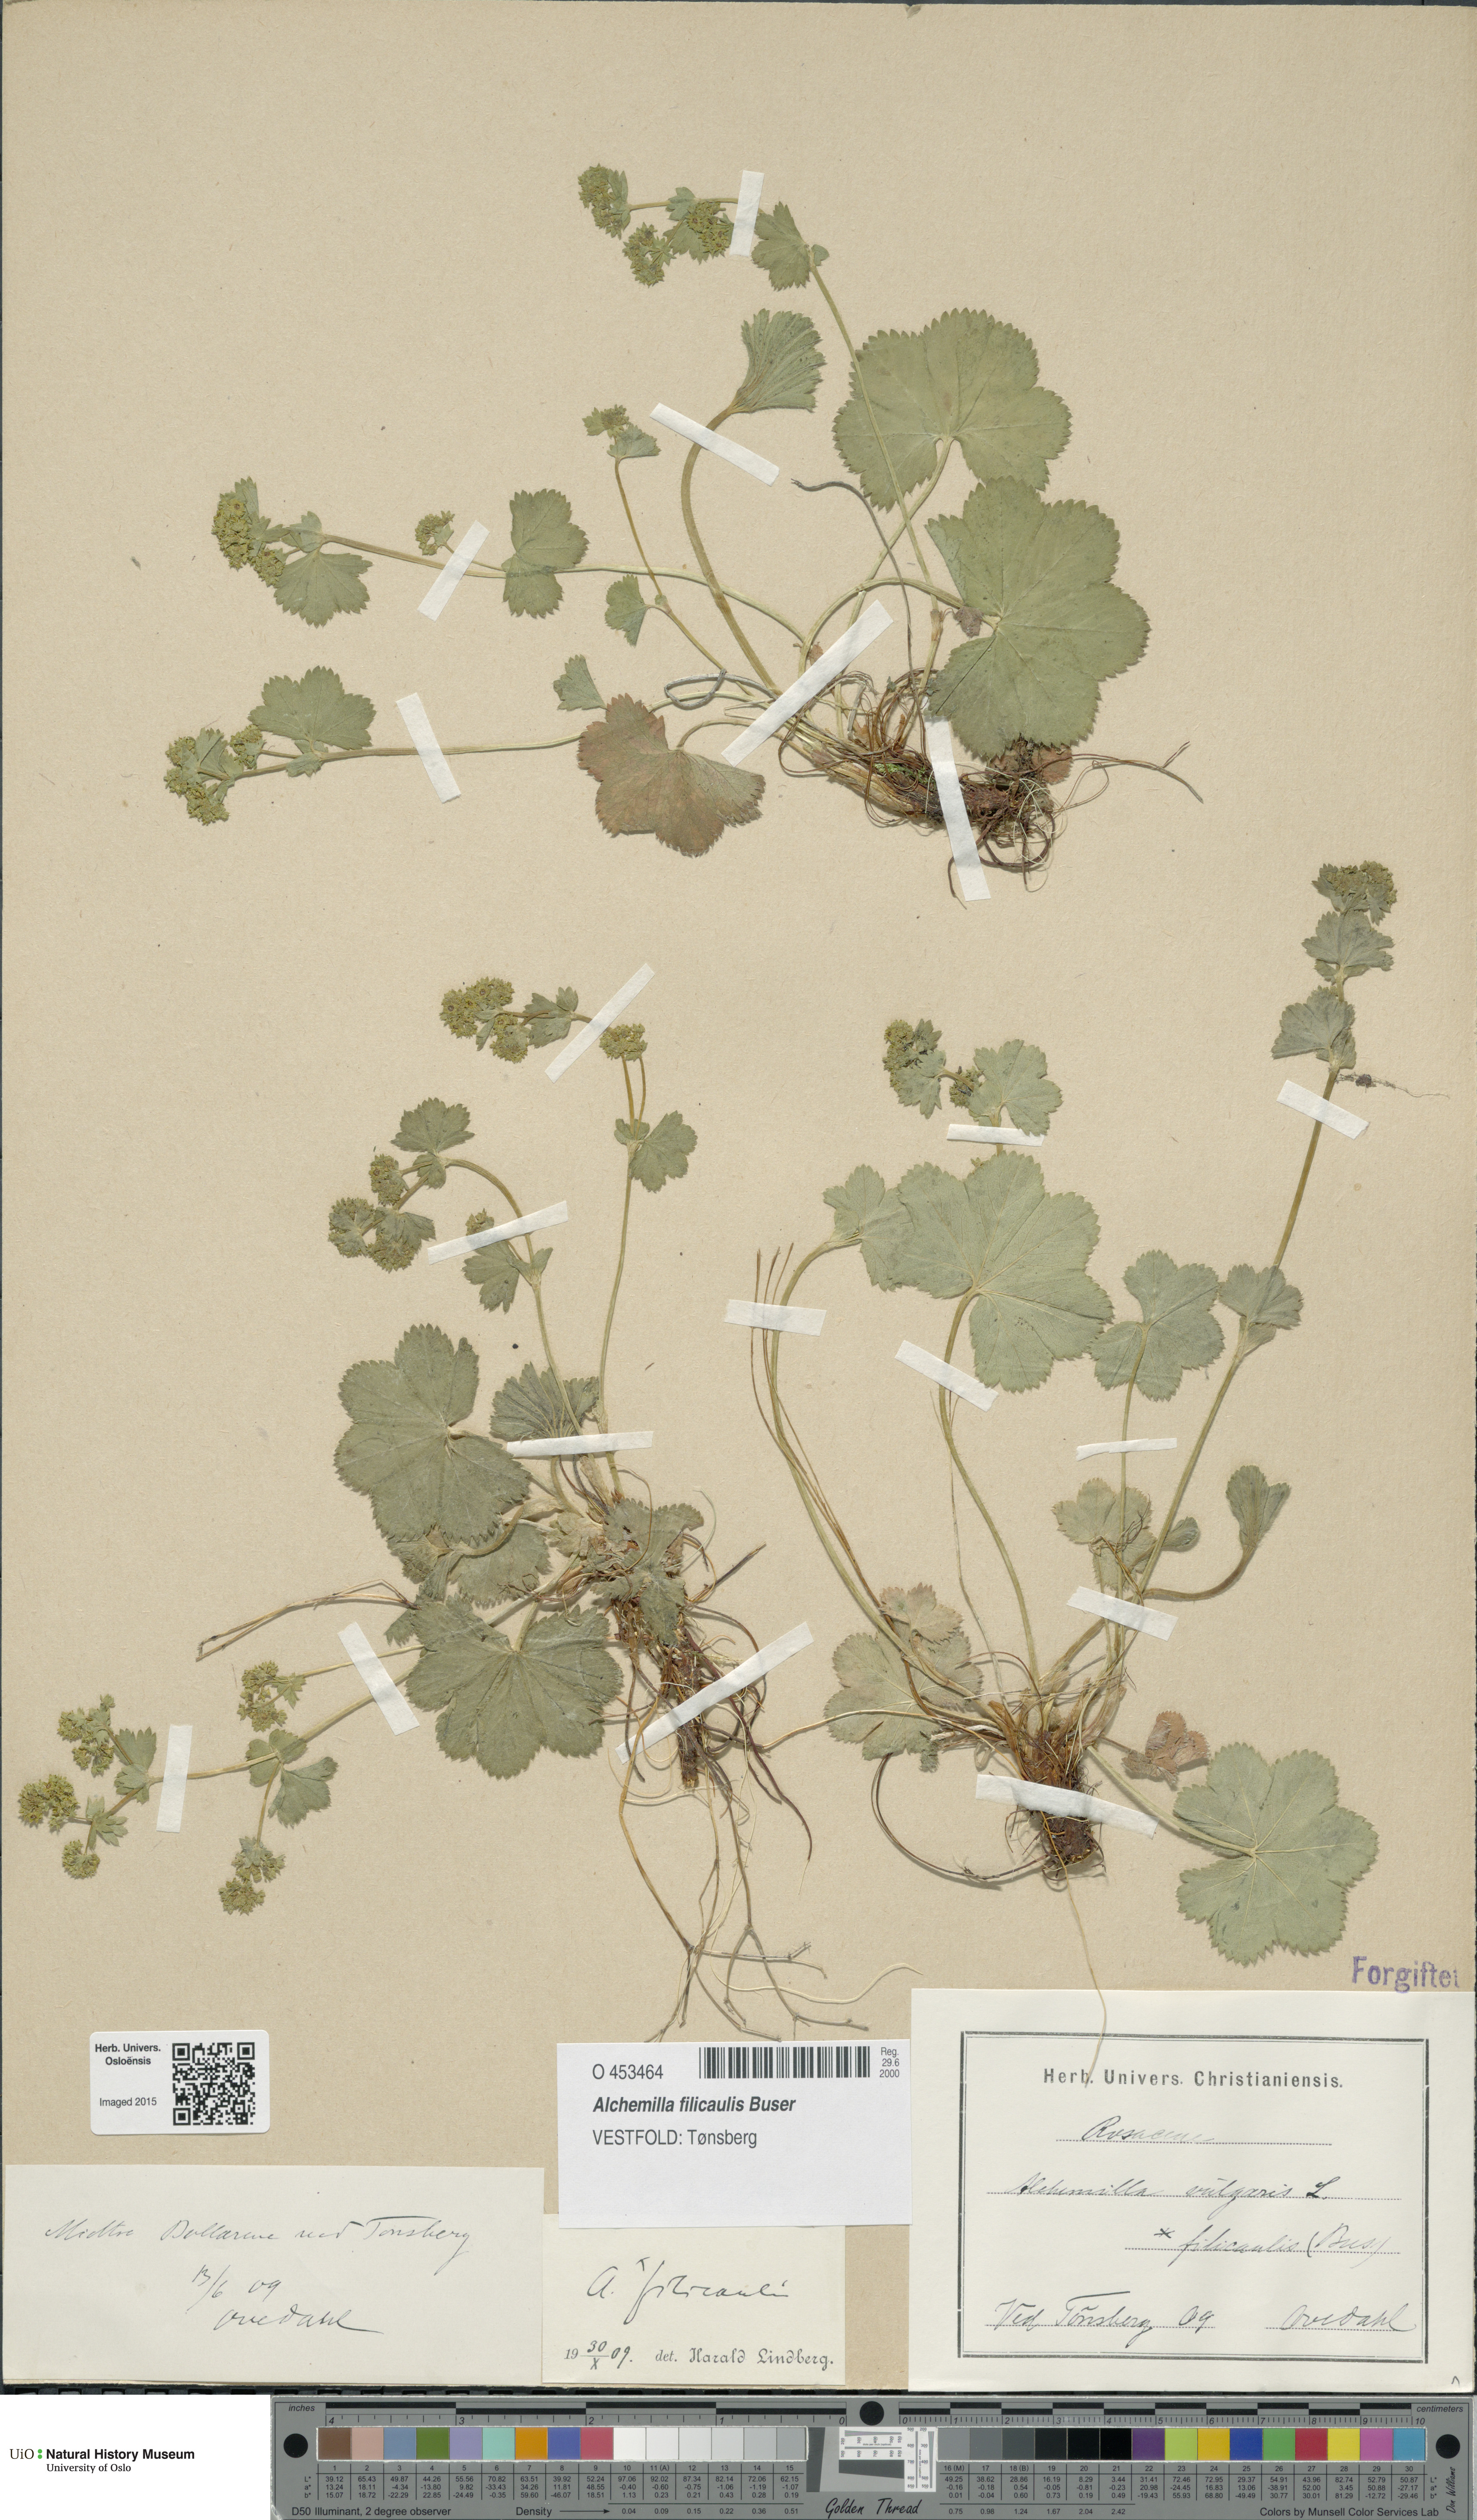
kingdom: Plantae
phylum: Tracheophyta
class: Magnoliopsida
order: Rosales
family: Rosaceae
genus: Alchemilla
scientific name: Alchemilla filicaulis
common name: Hairy lady's-mantle
